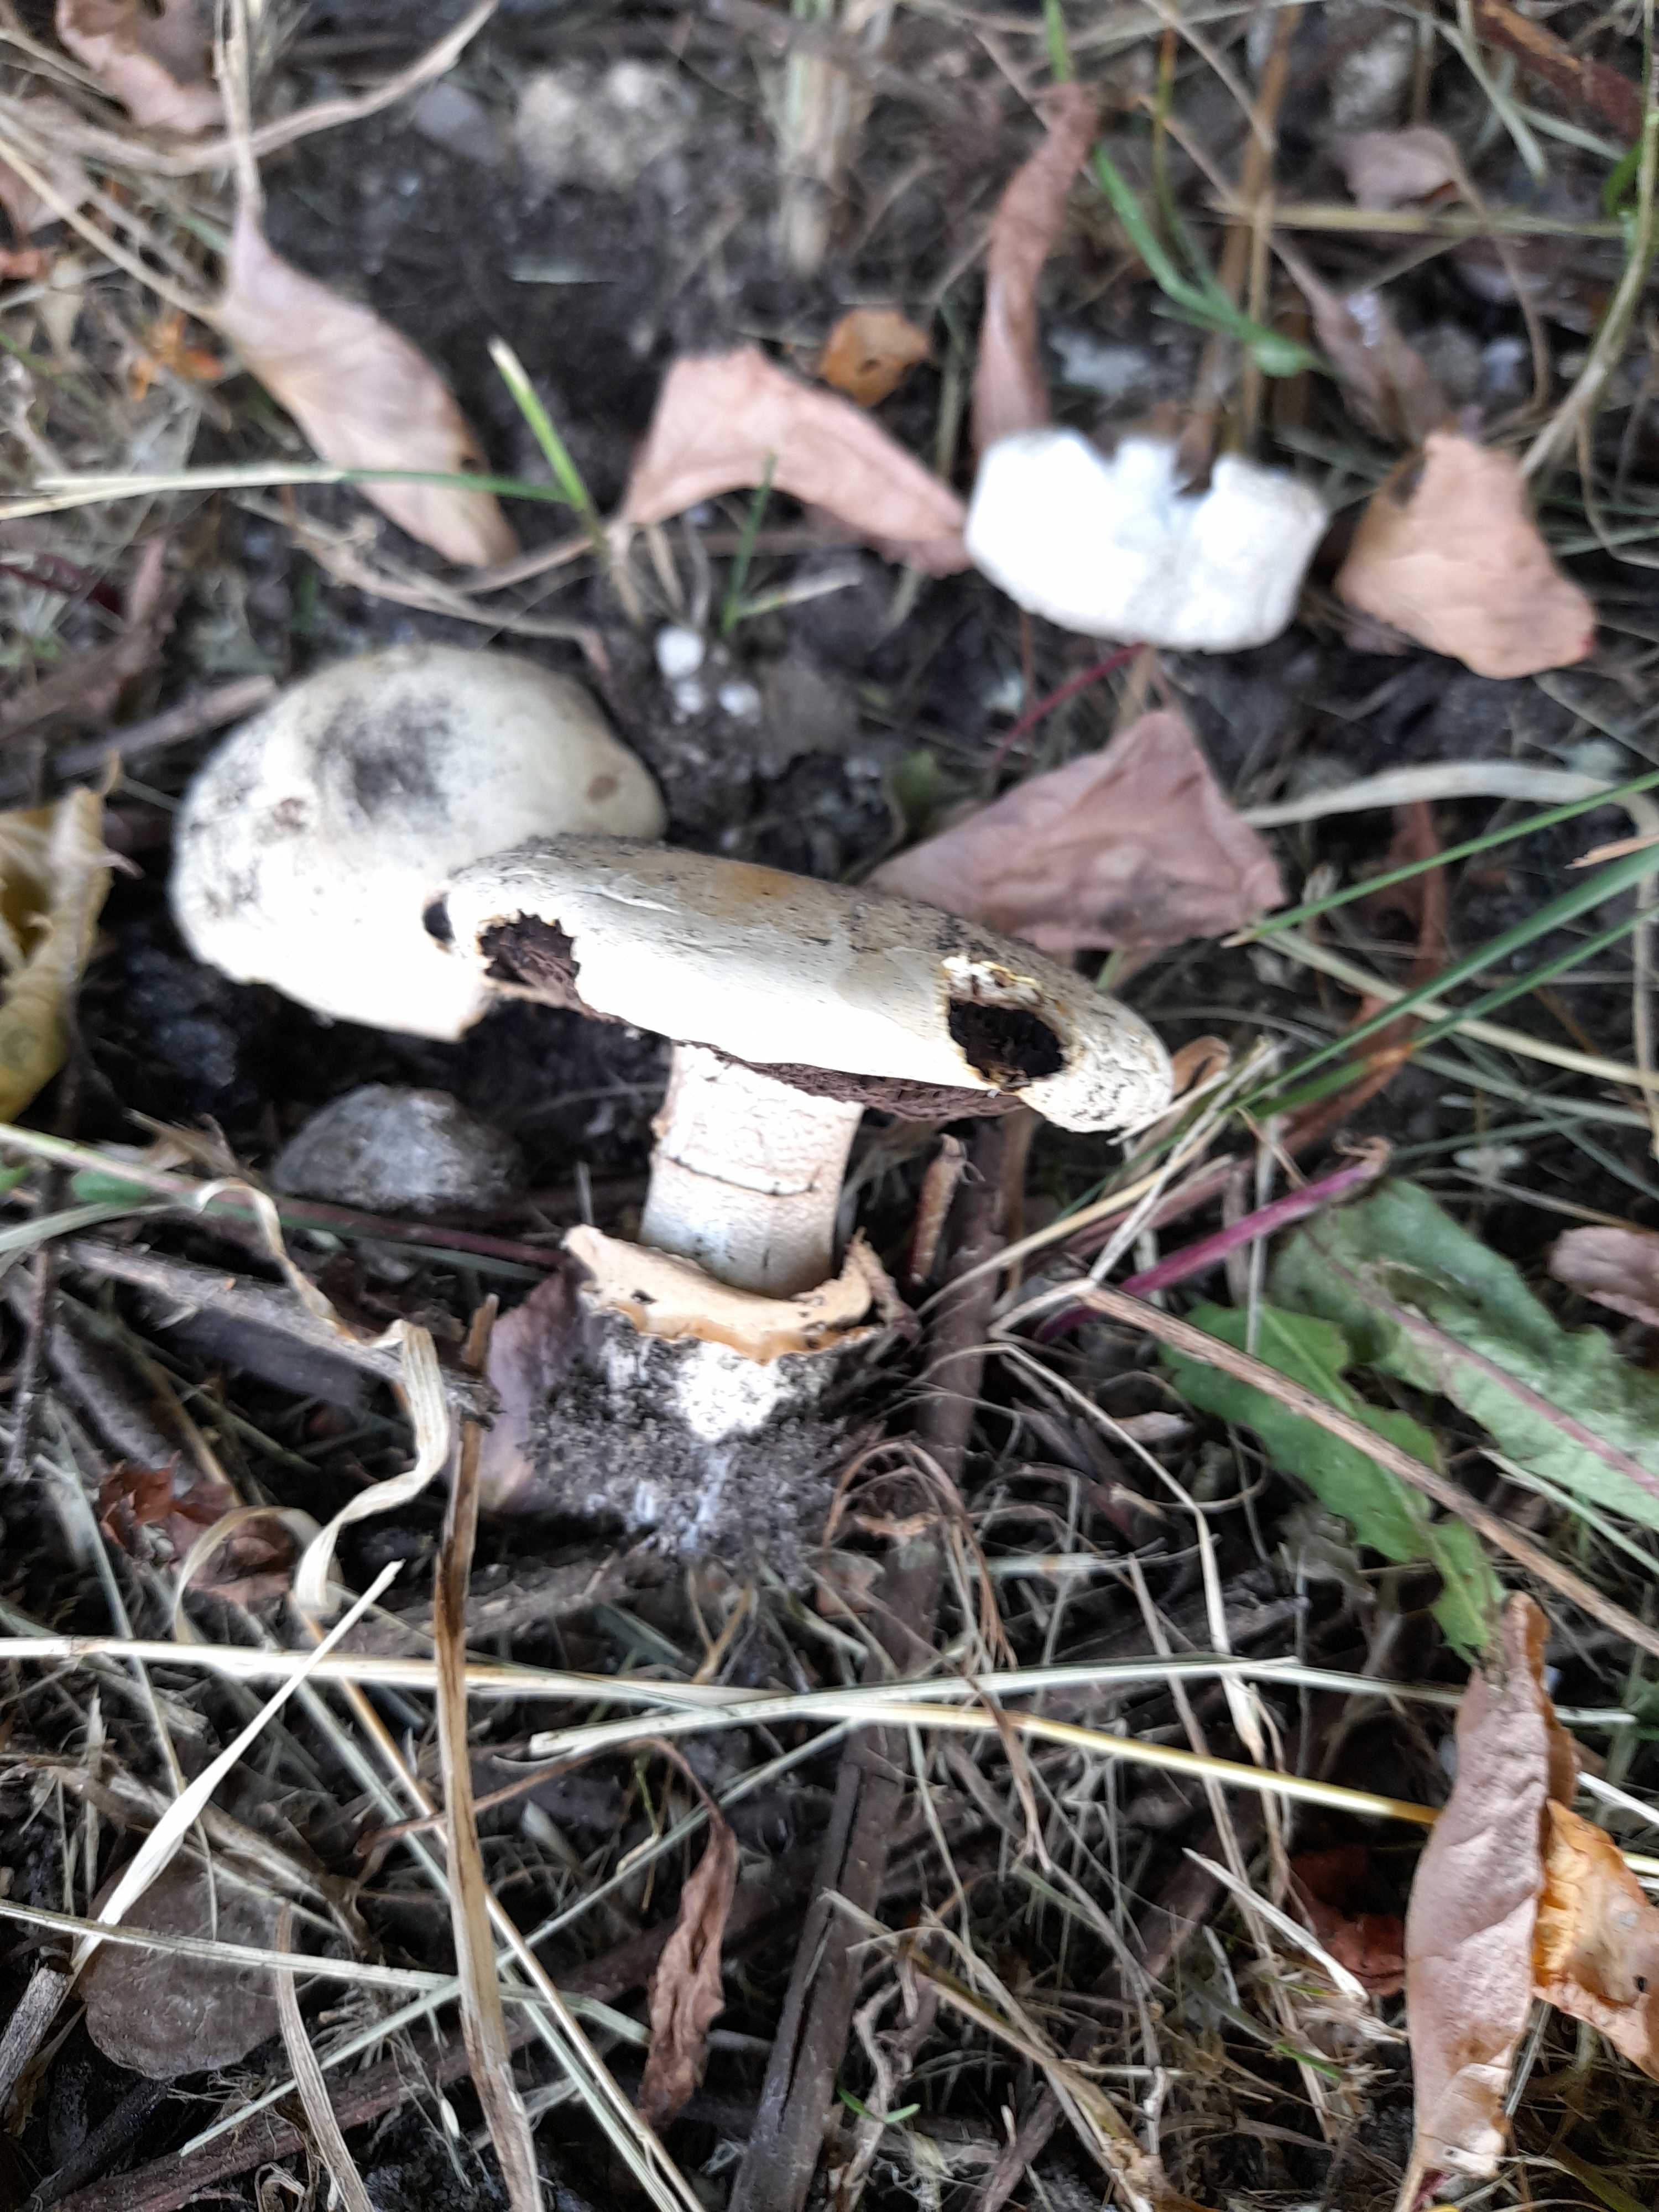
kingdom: Fungi
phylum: Basidiomycota
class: Agaricomycetes
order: Agaricales
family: Agaricaceae
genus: Agaricus
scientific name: Agaricus bitorquis
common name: vej-champignon
